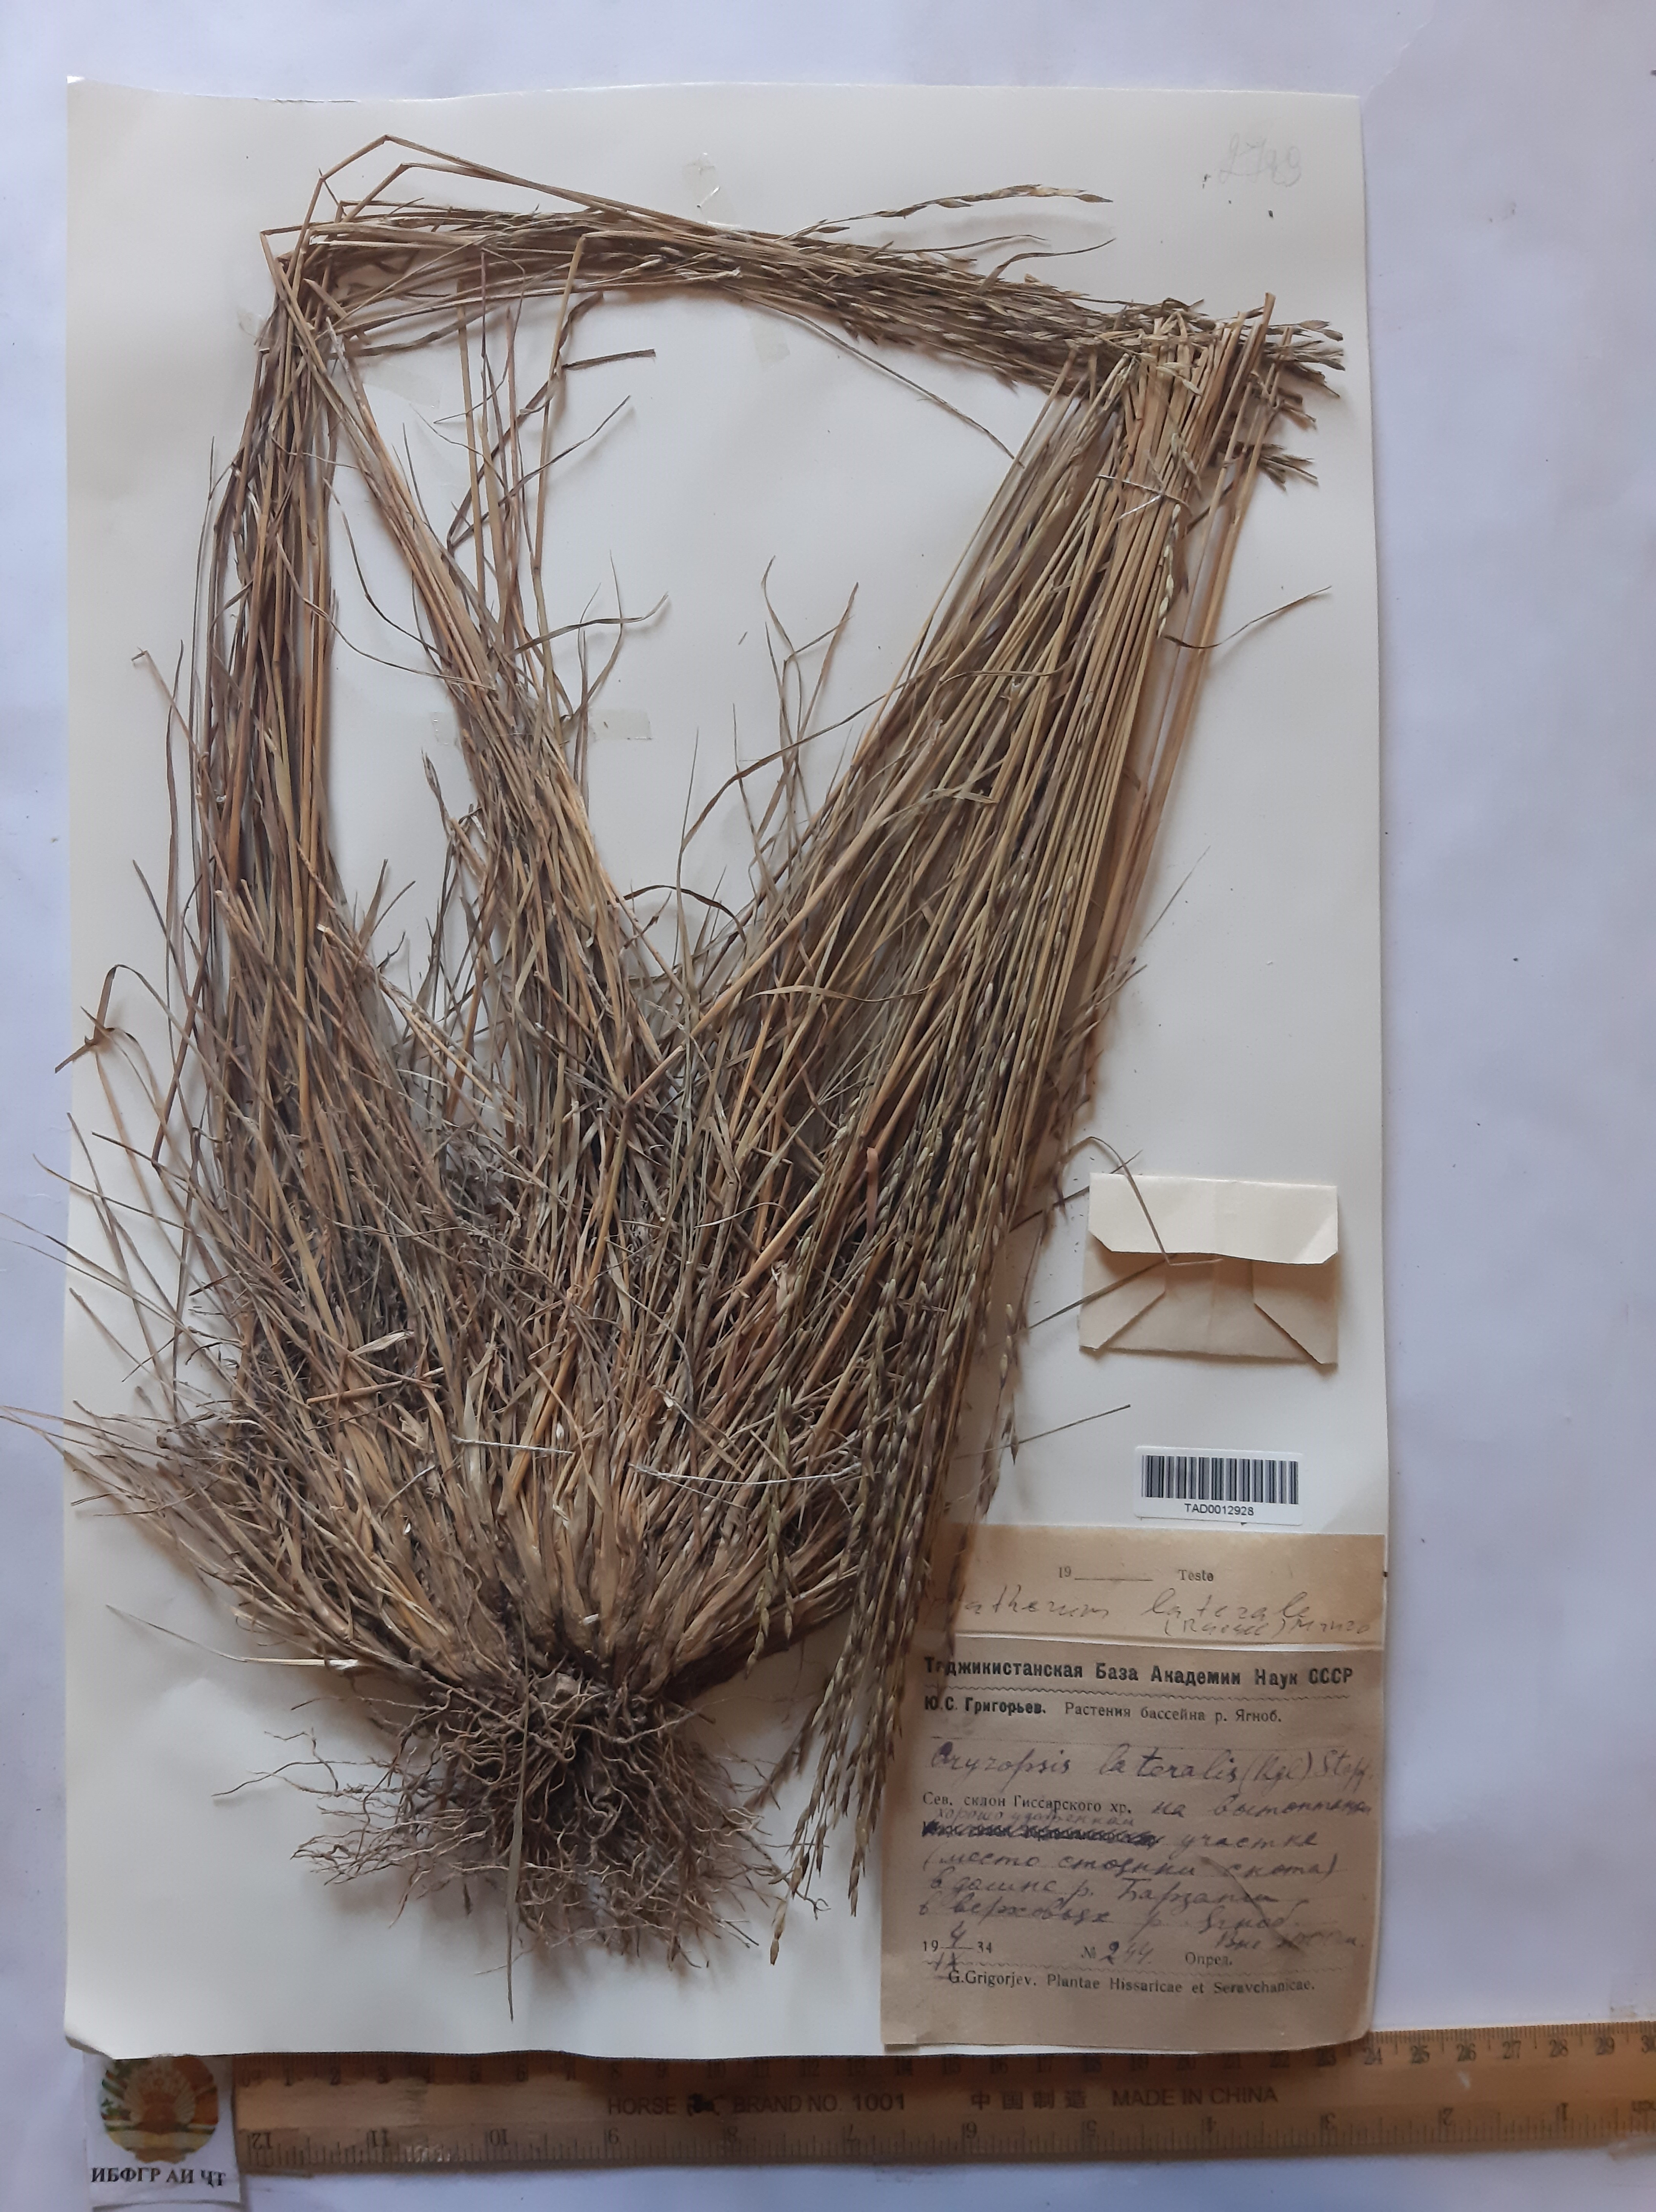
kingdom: Plantae
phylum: Tracheophyta
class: Liliopsida
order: Poales
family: Poaceae
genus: Piptatherum
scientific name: Piptatherum laterale
